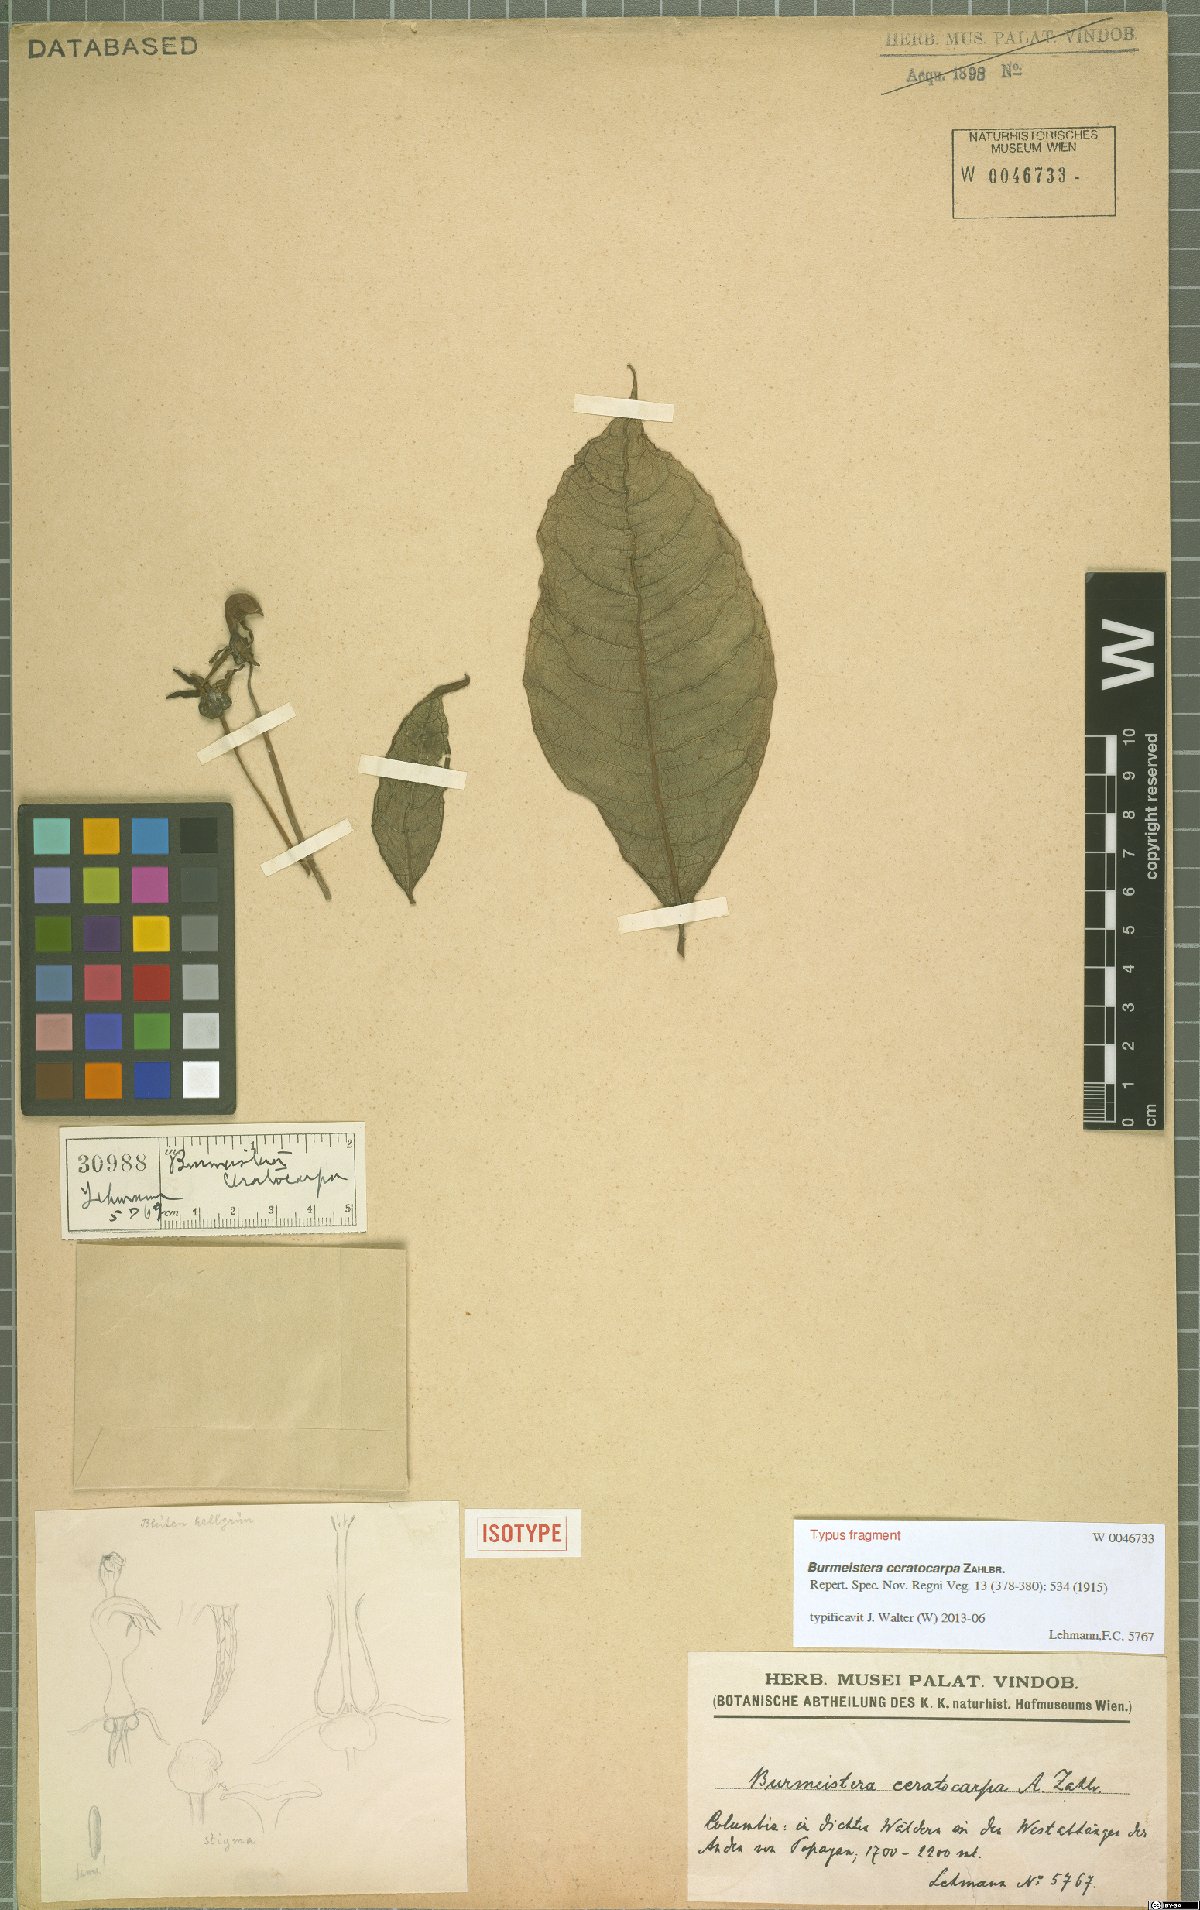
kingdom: Plantae
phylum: Tracheophyta
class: Magnoliopsida
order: Asterales
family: Campanulaceae
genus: Burmeistera
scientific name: Burmeistera ceratocarpa
